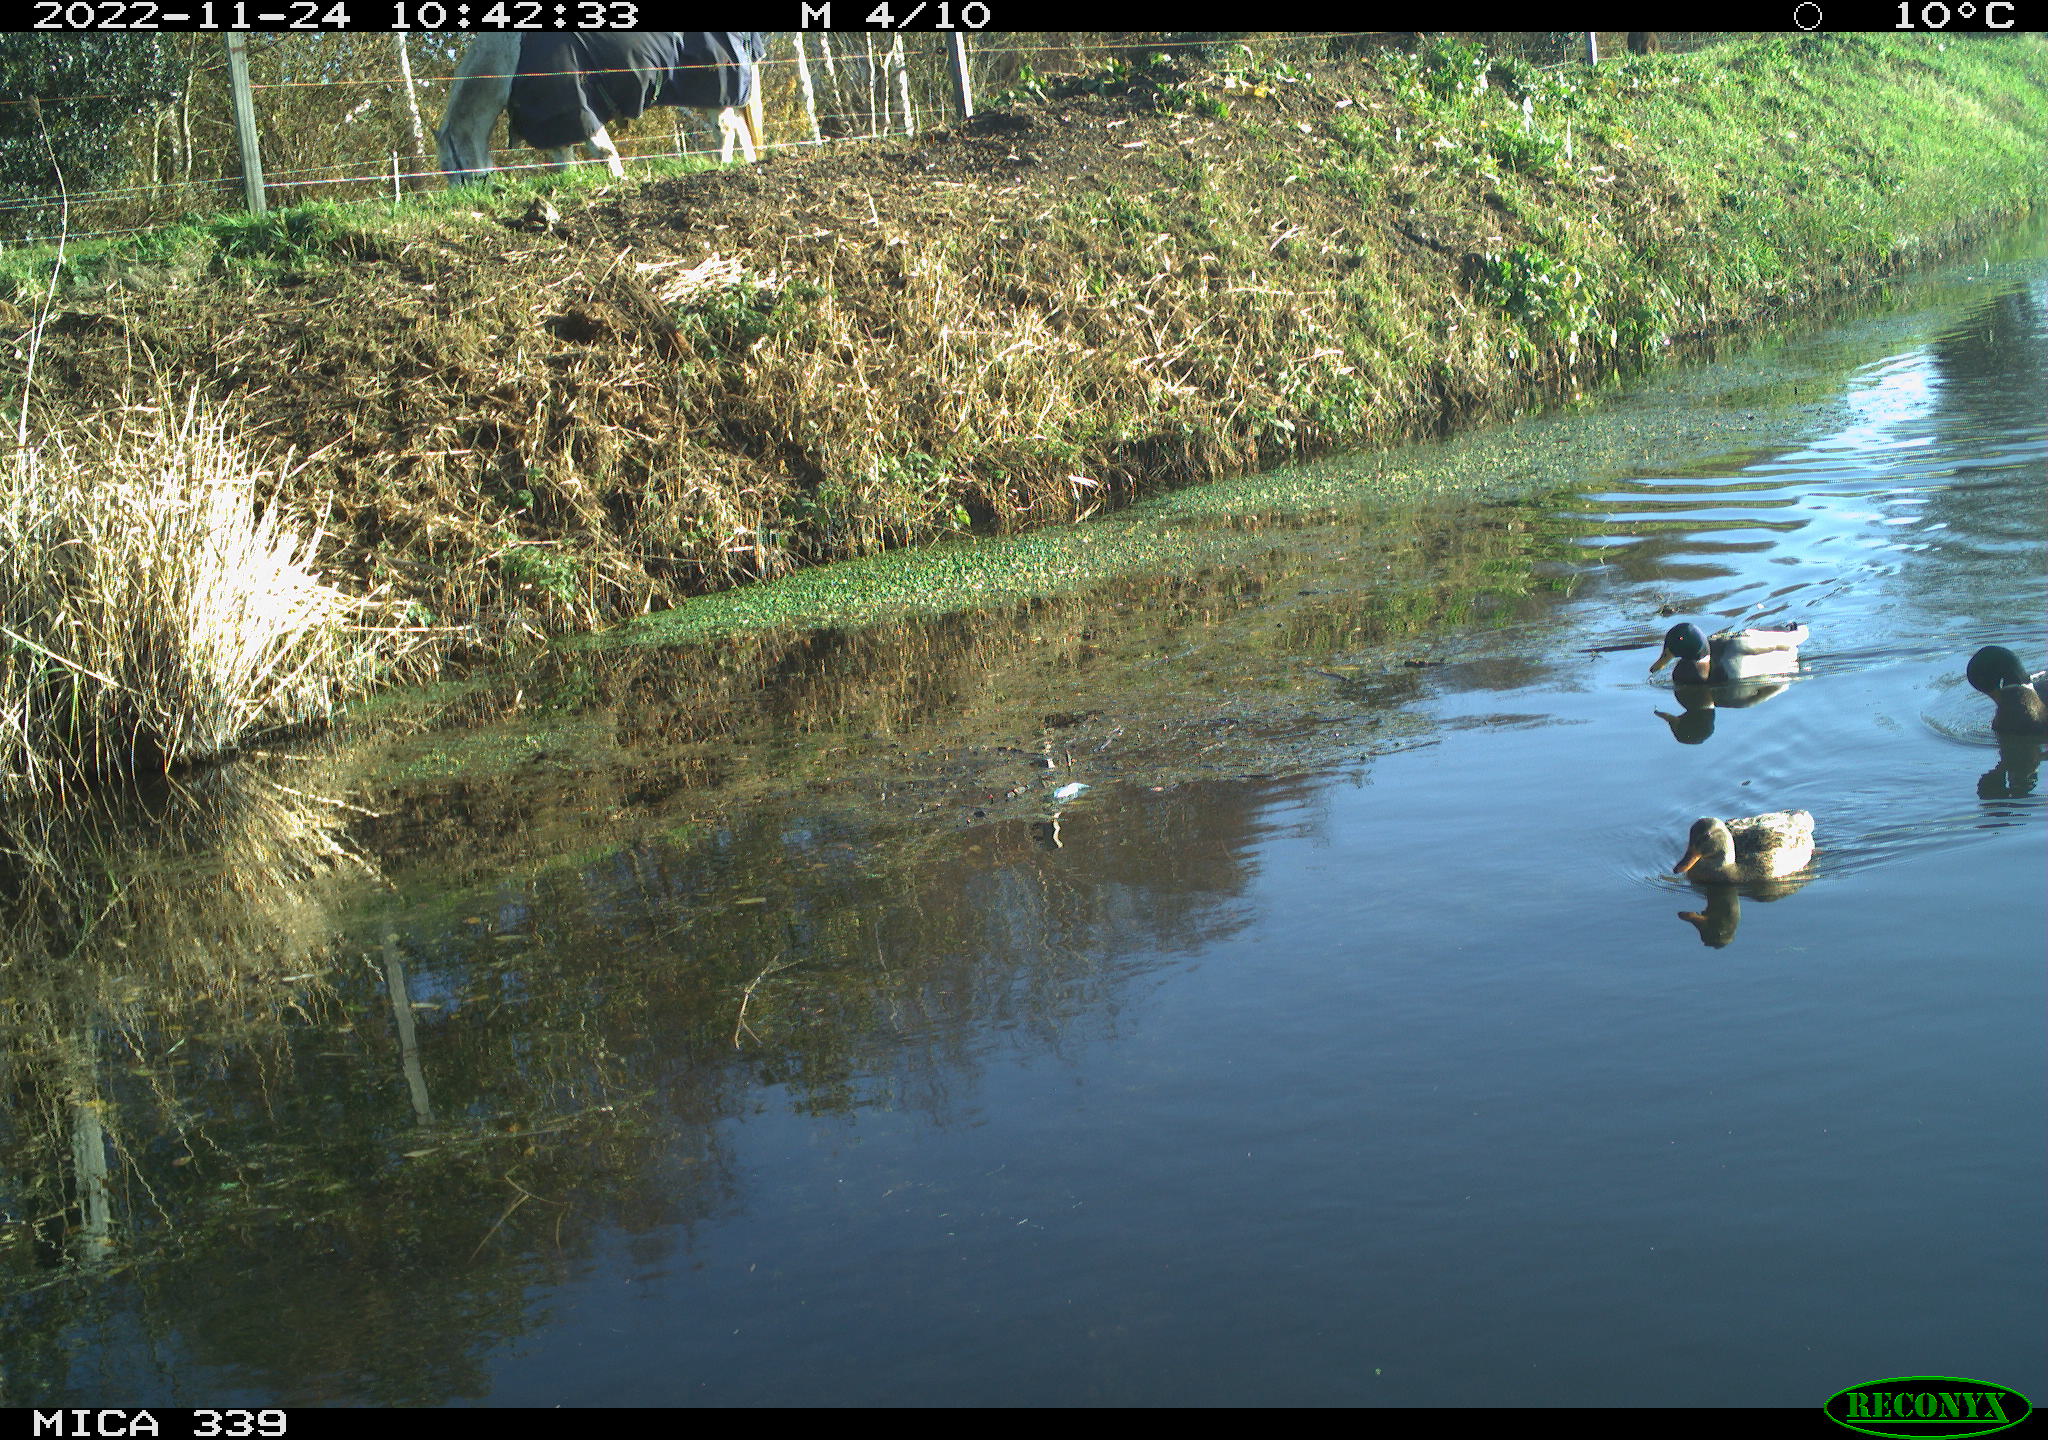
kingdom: Animalia
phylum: Chordata
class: Mammalia
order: Perissodactyla
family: Equidae
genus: Equus
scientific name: Equus caballus
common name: Horse
